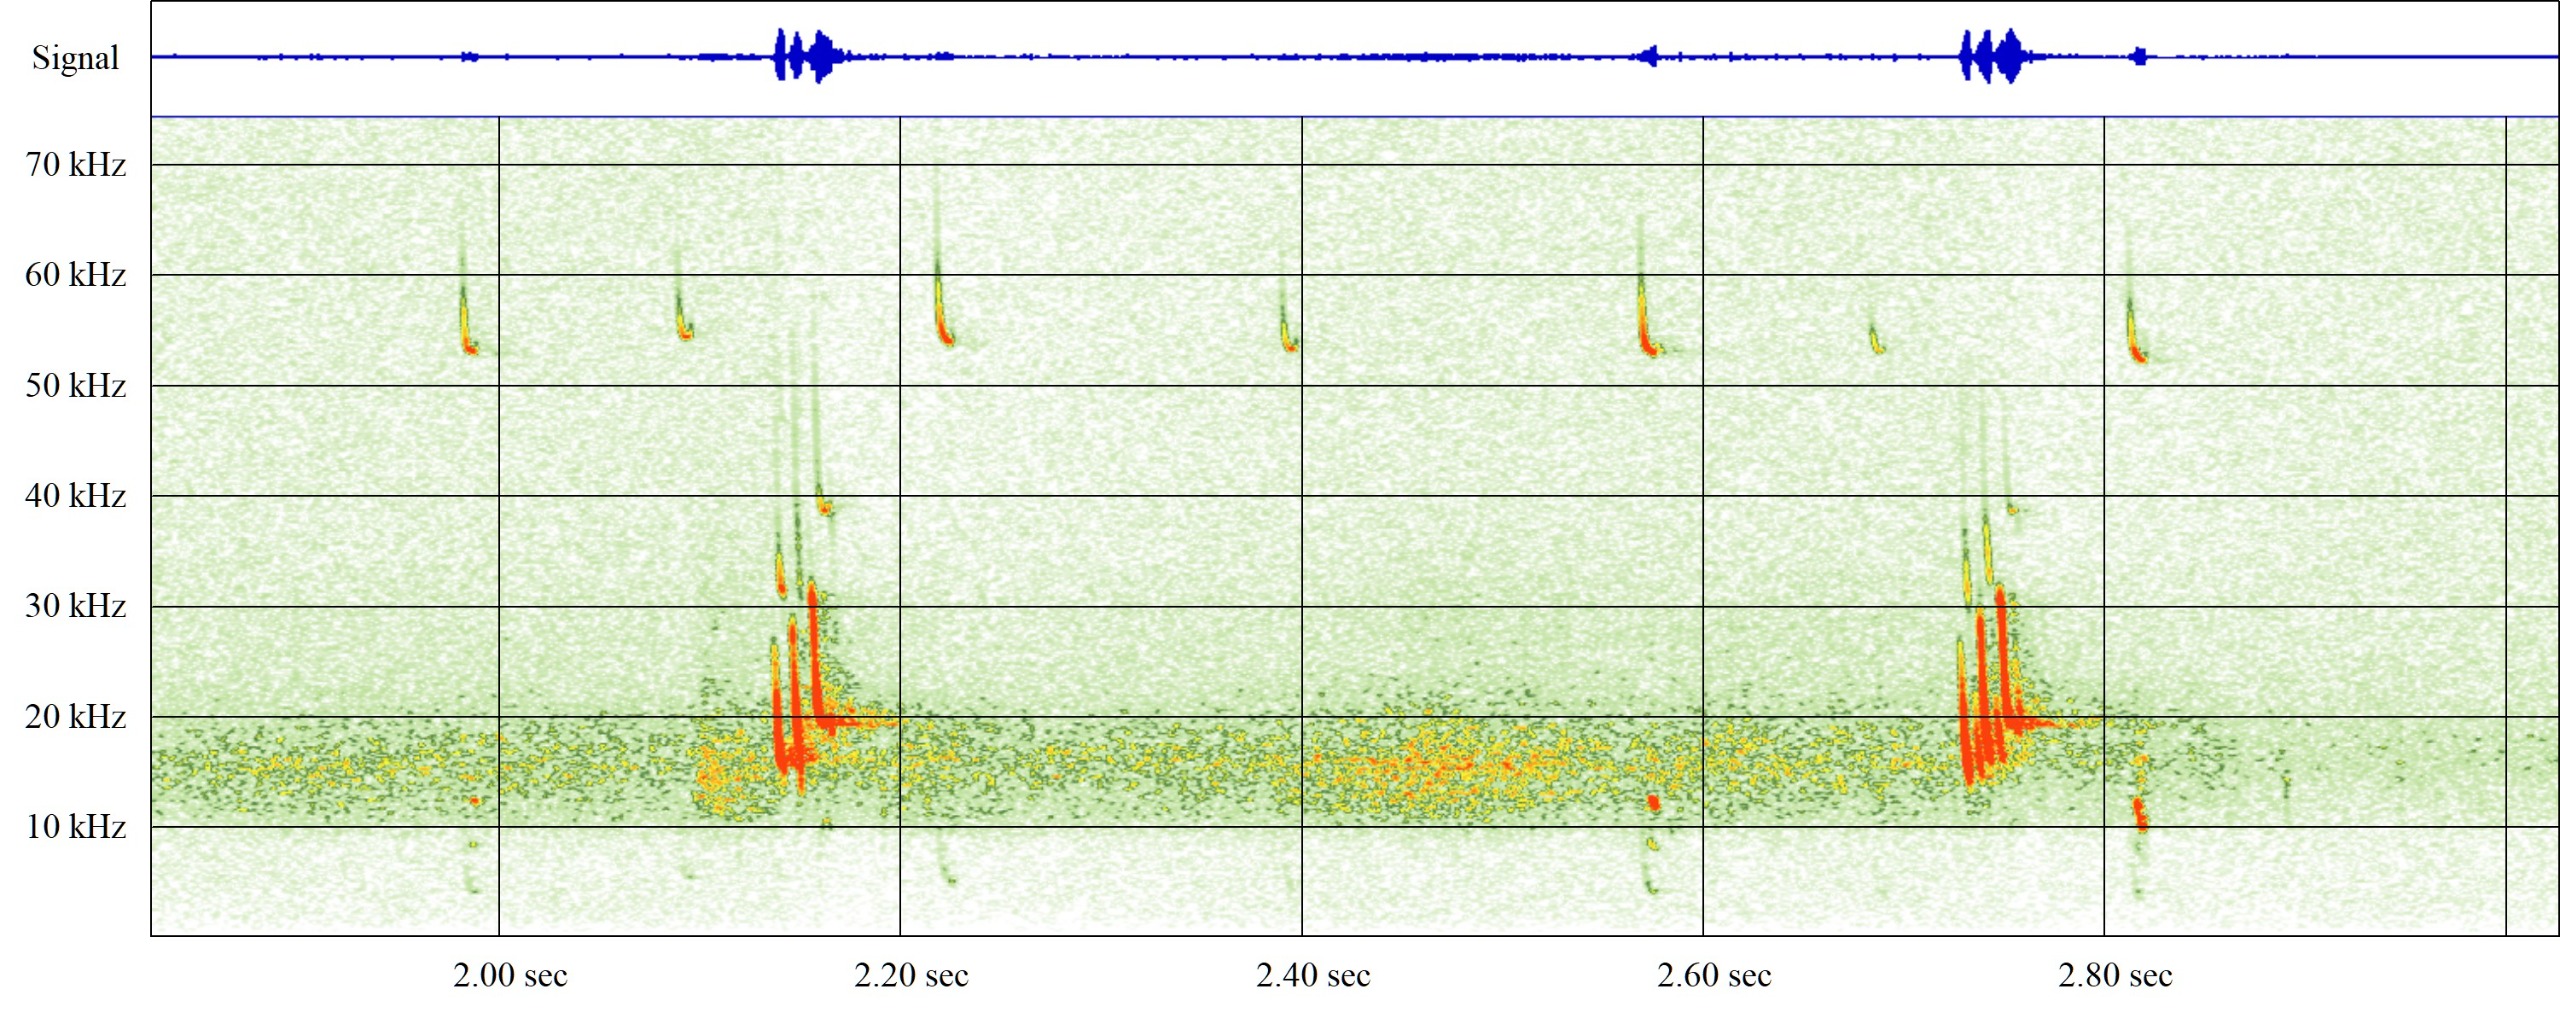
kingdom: Animalia
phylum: Chordata
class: Mammalia
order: Chiroptera
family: Vespertilionidae
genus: Pipistrellus
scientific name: Pipistrellus pygmaeus
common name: Dværgflagermus
